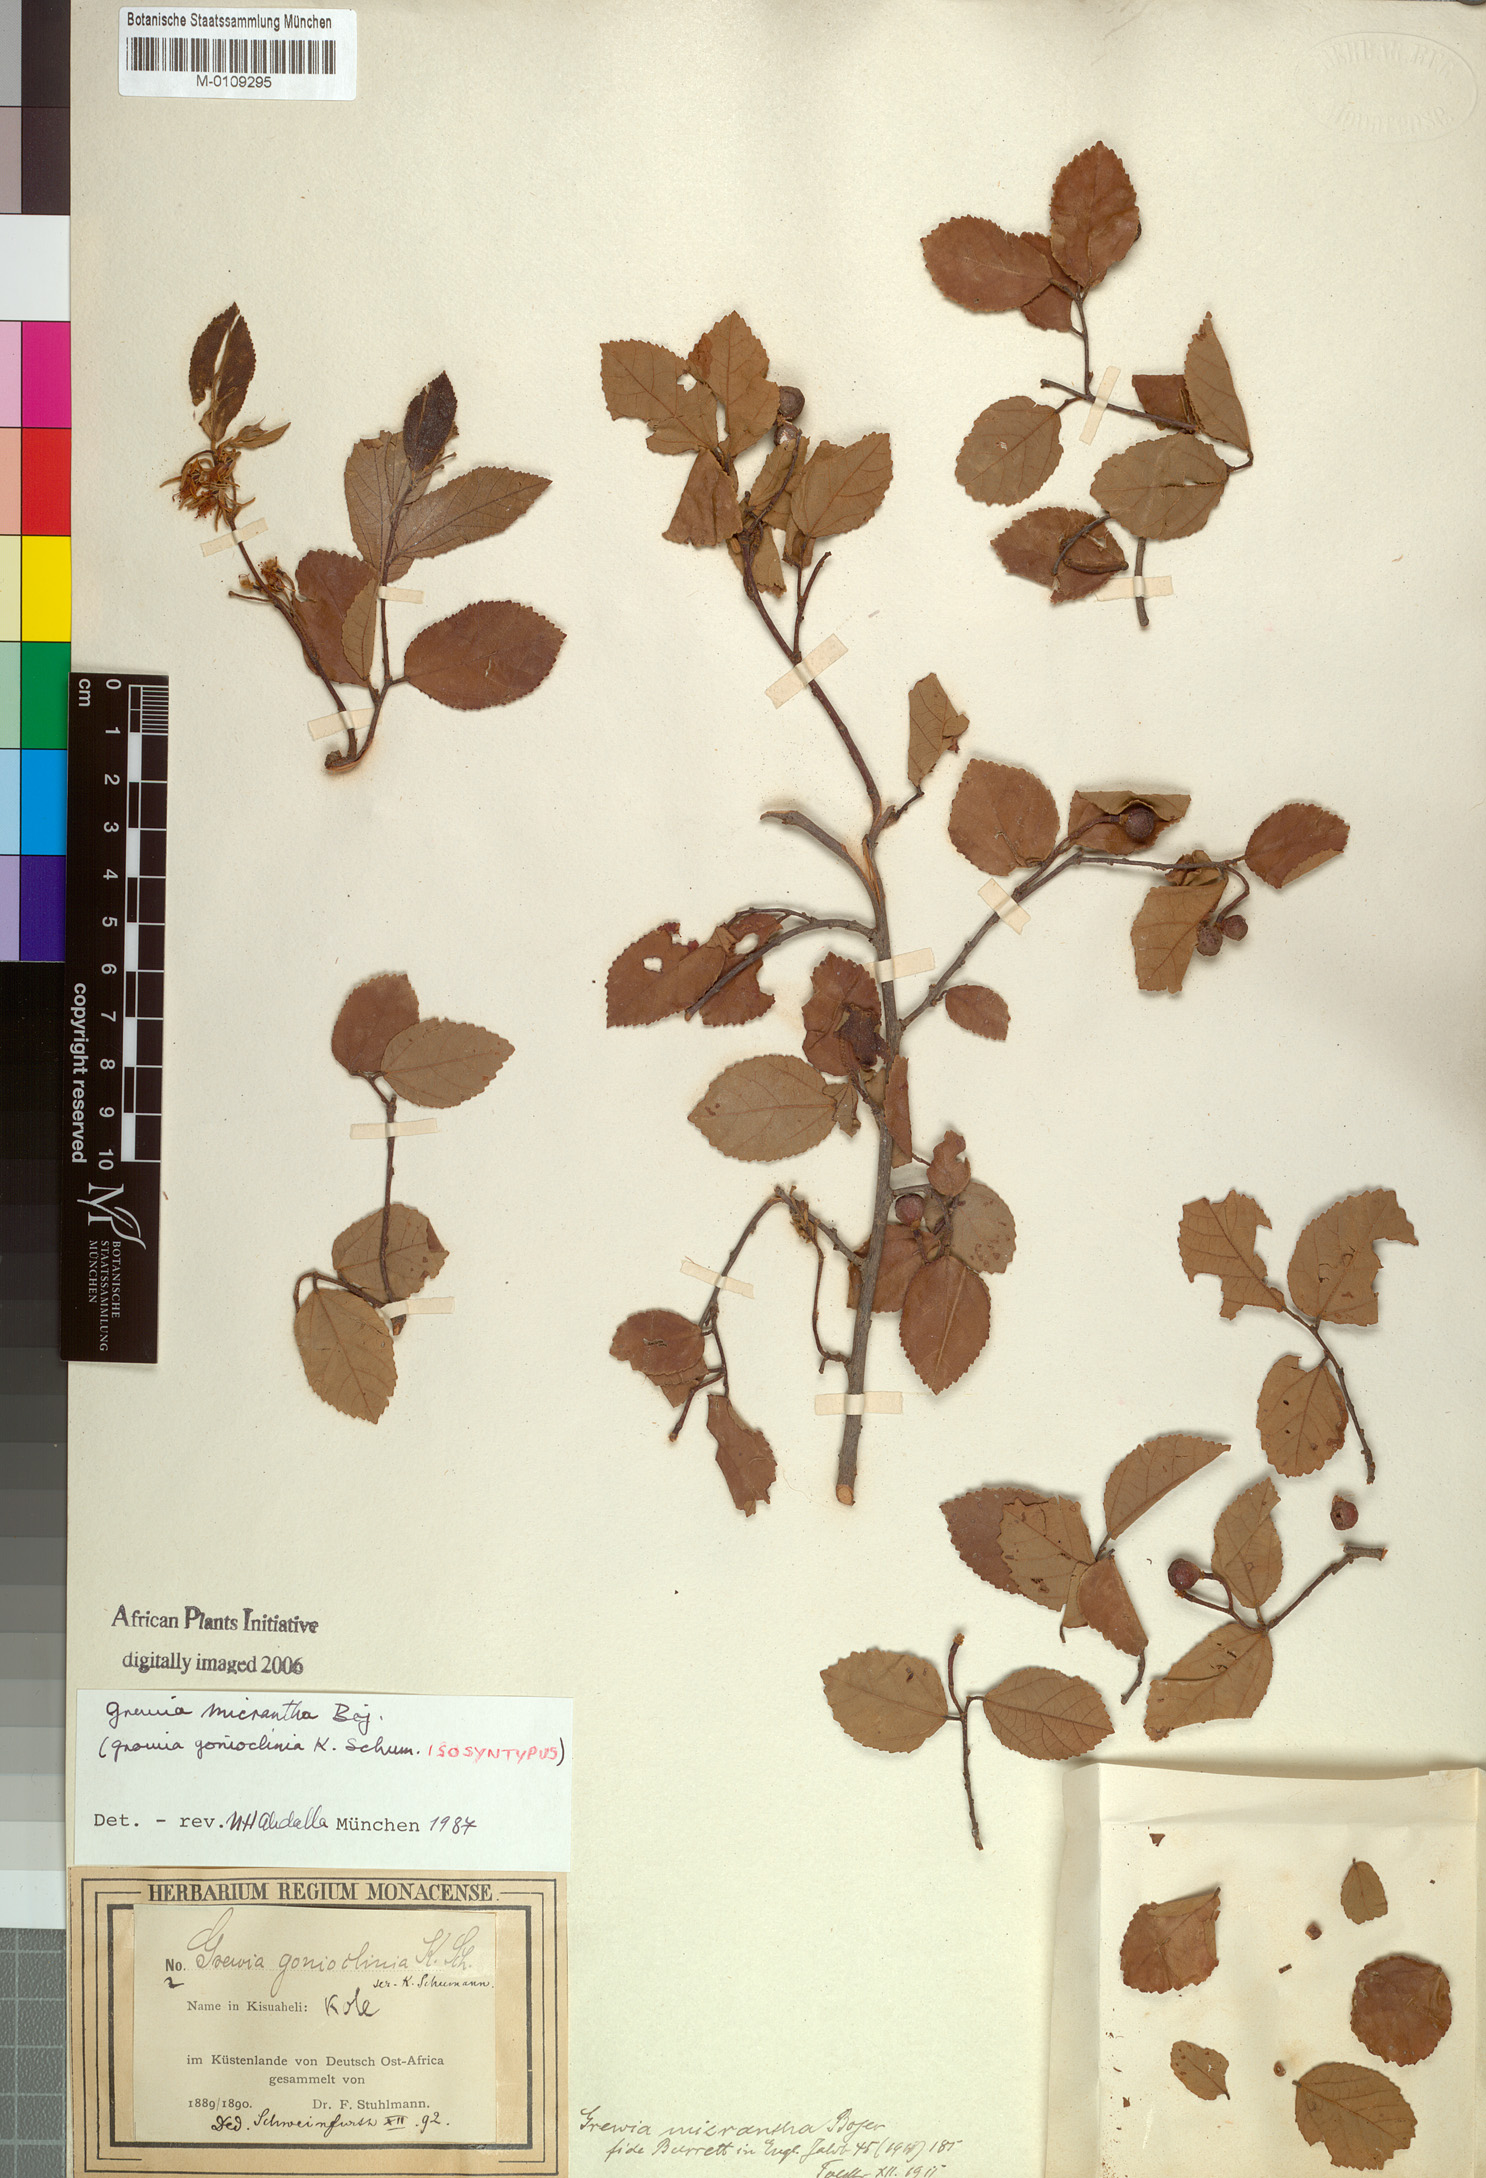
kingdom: Plantae
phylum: Tracheophyta
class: Magnoliopsida
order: Malvales
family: Malvaceae
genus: Grewia
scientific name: Grewia woodiana
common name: Golden fruit raisin
